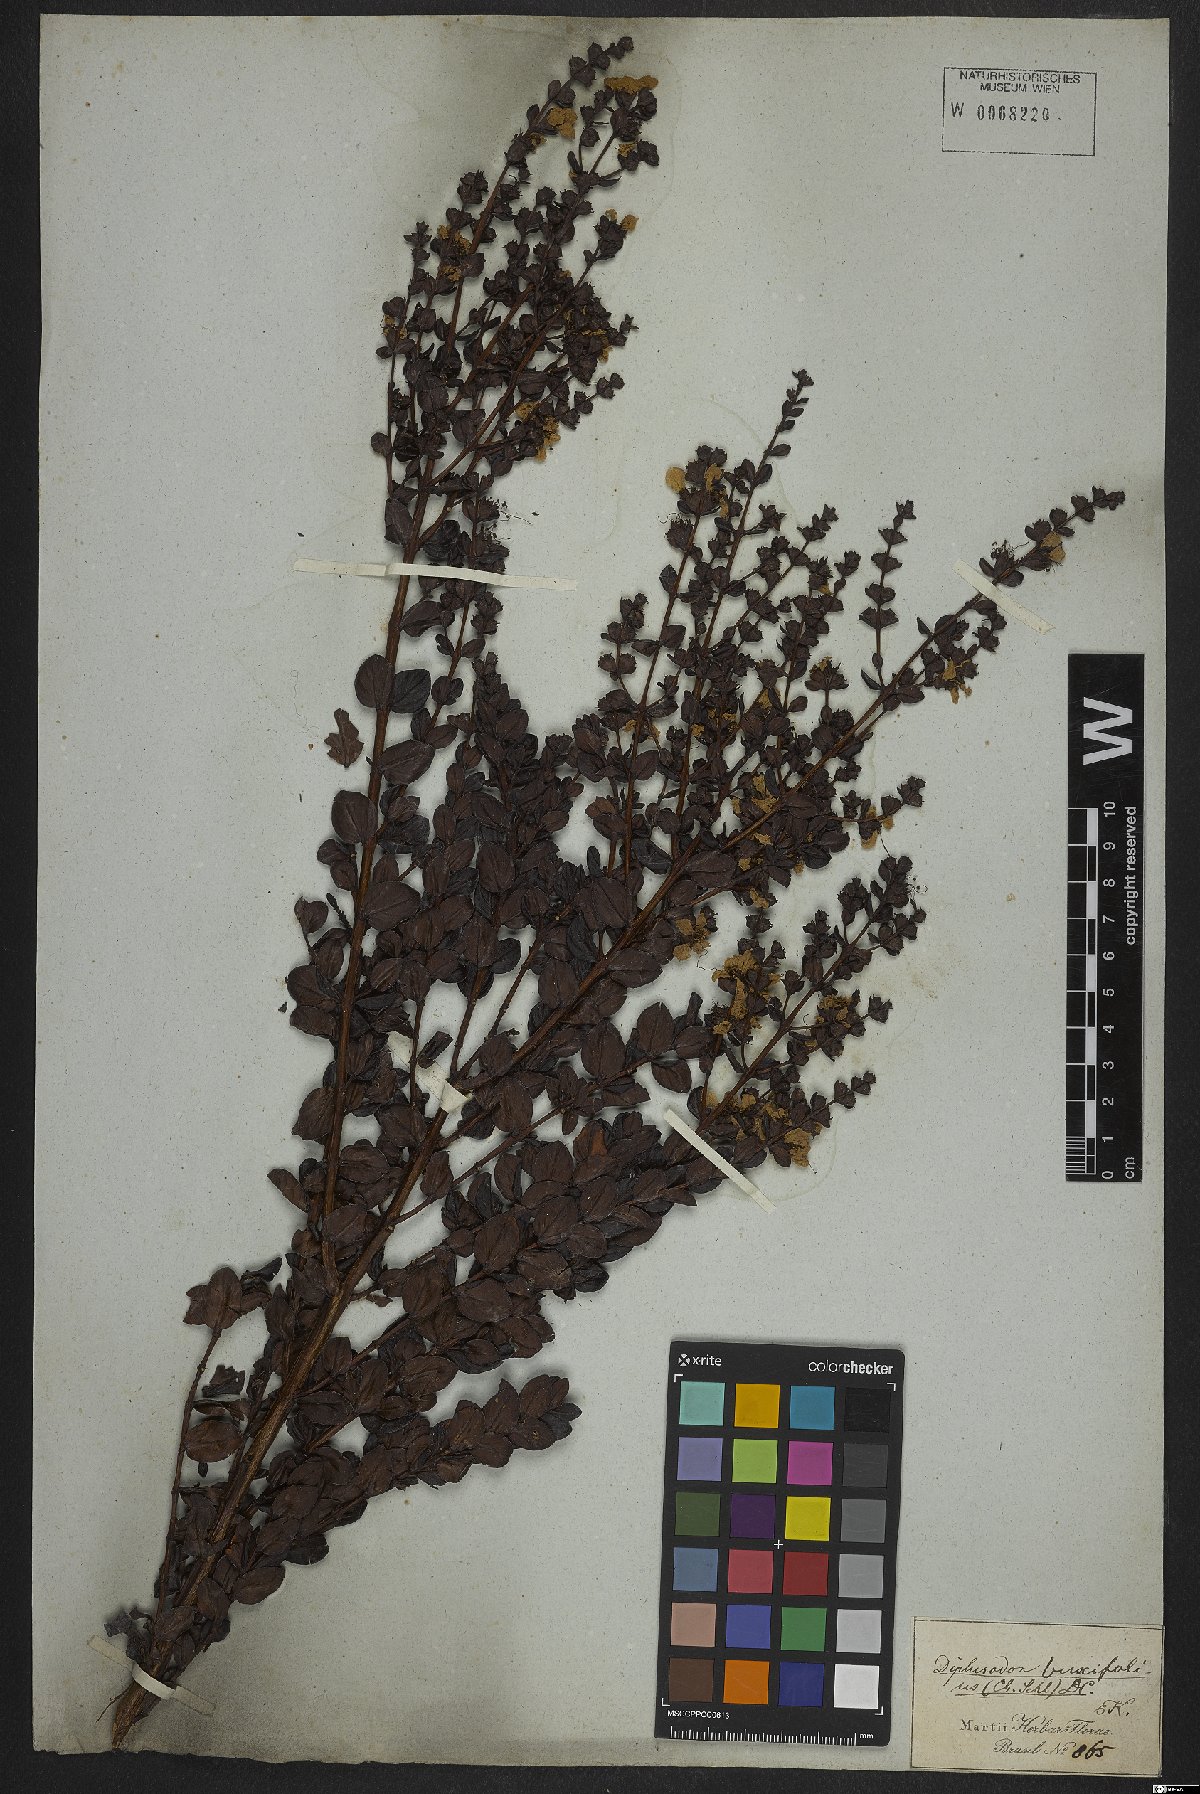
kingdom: Plantae
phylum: Tracheophyta
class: Magnoliopsida
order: Myrtales
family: Lythraceae
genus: Diplusodon
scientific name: Diplusodon buxifolius
